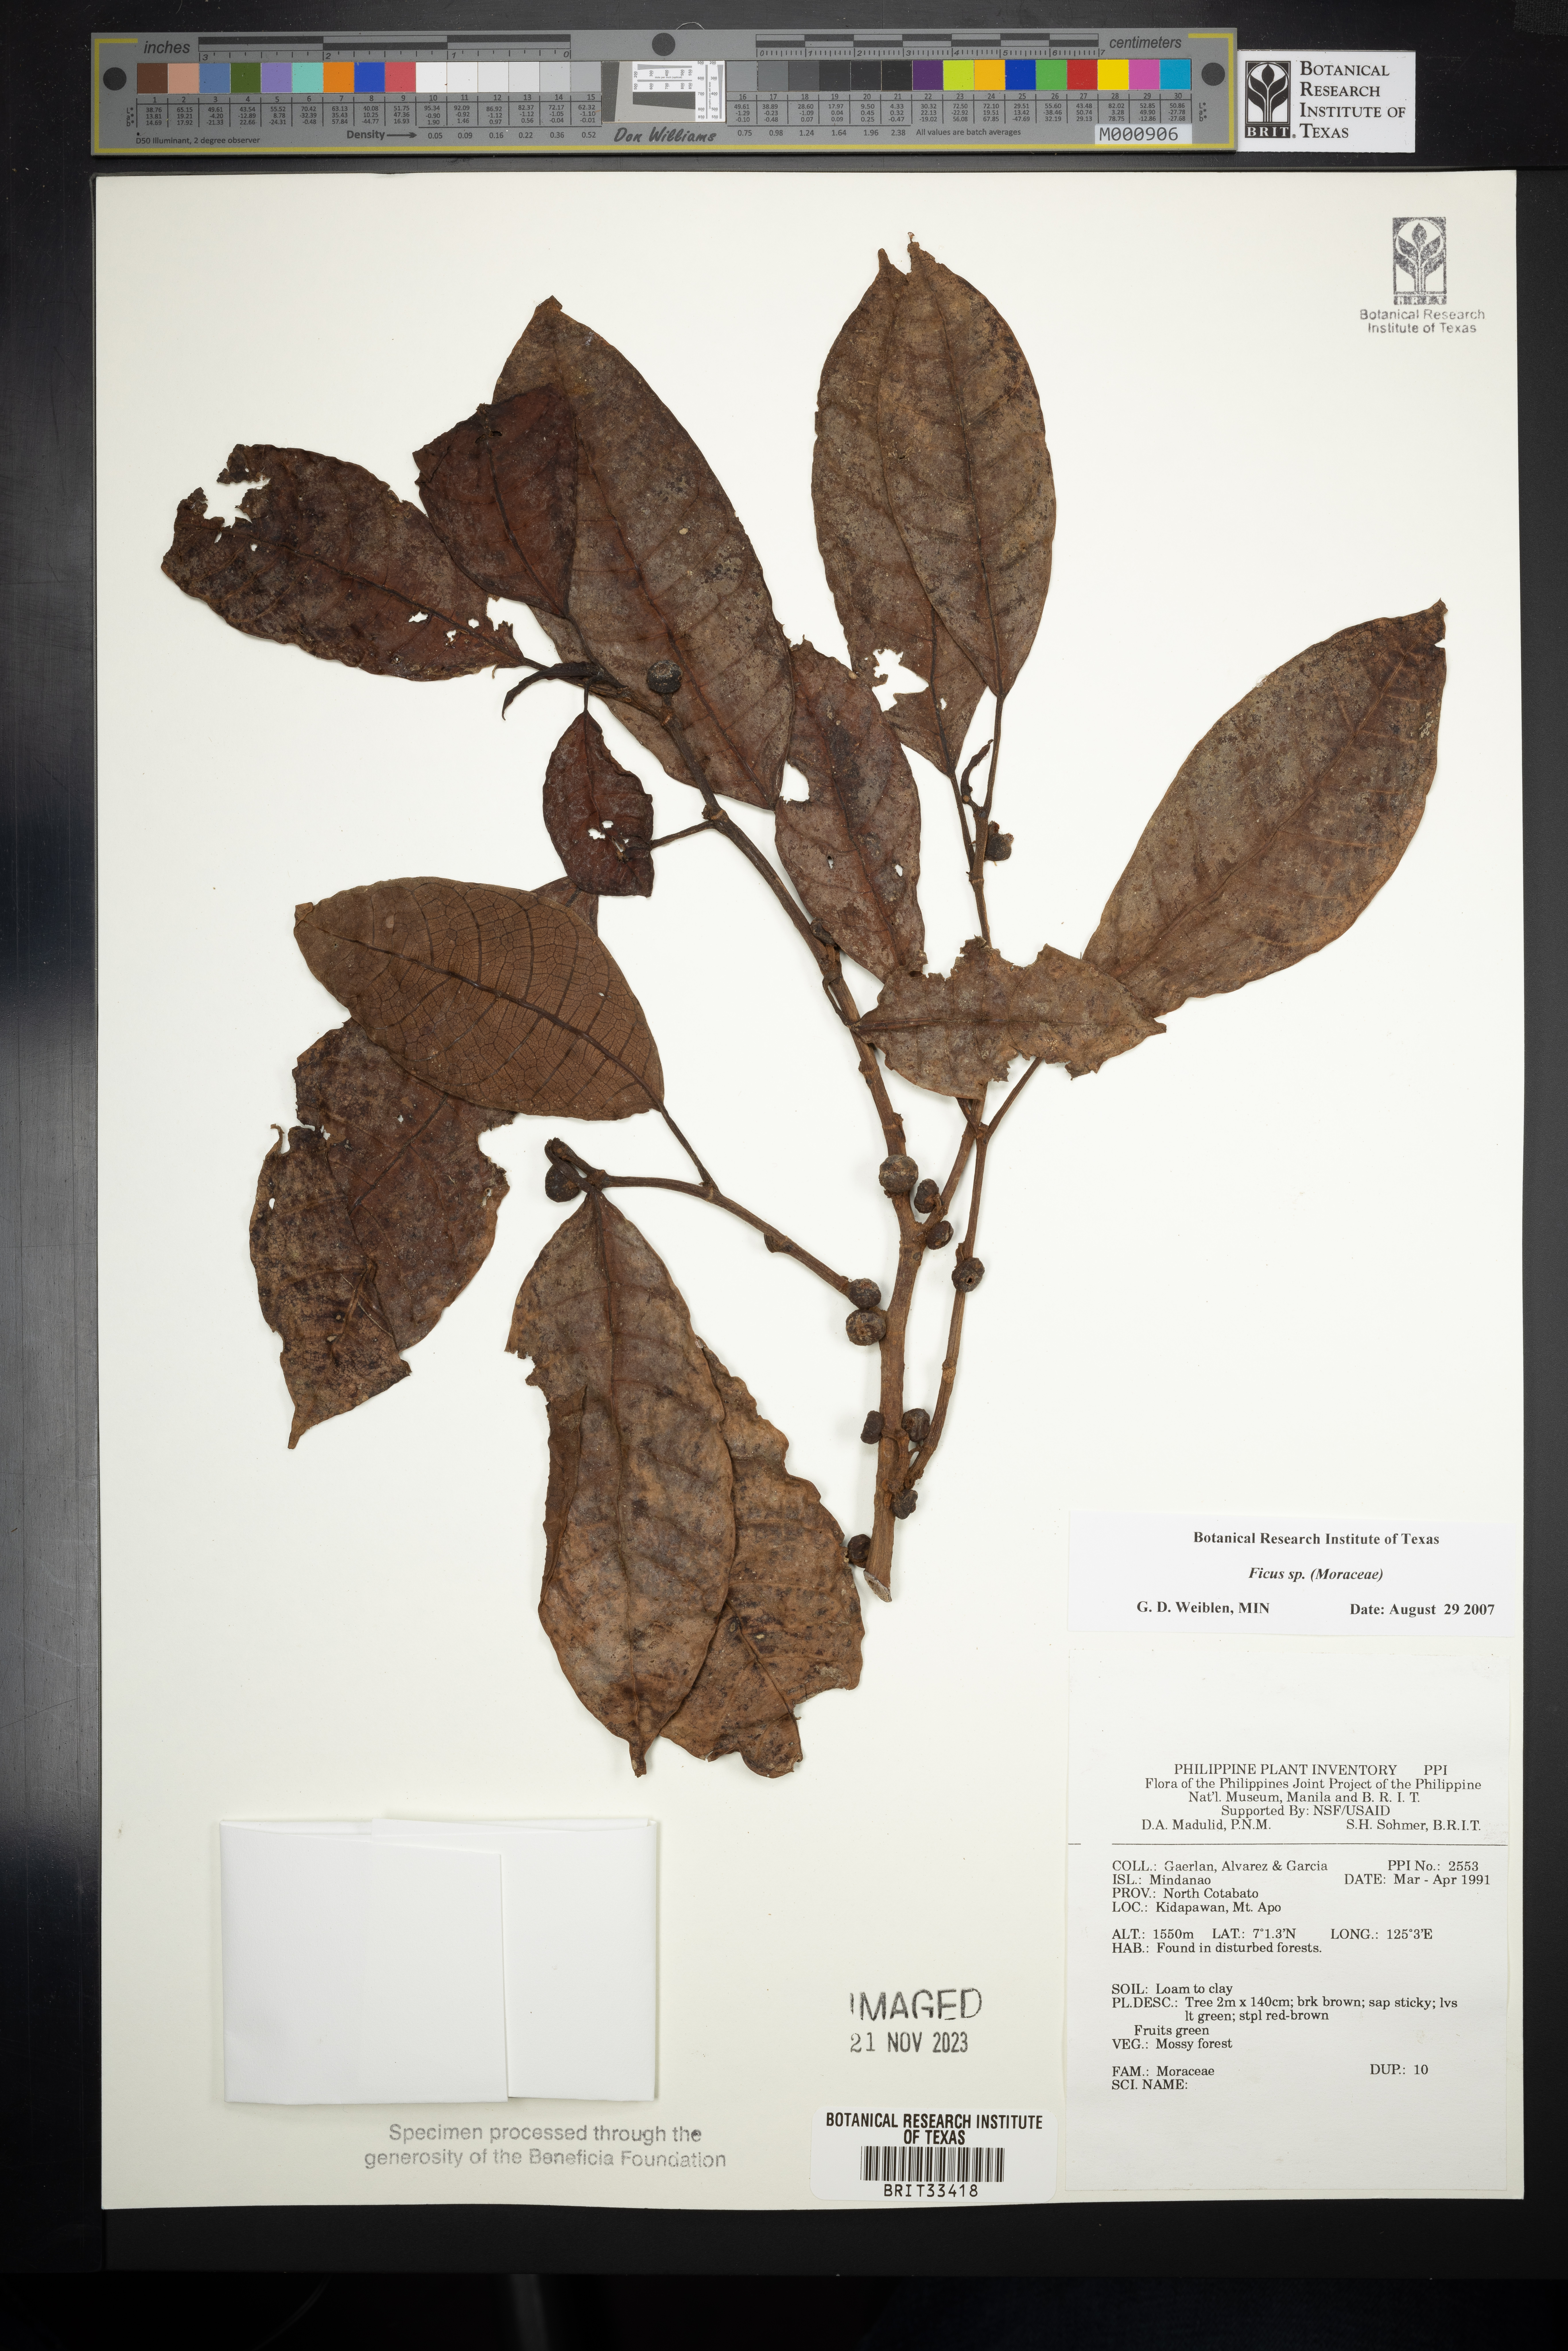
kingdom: Plantae
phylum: Tracheophyta
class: Magnoliopsida
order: Rosales
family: Moraceae
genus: Ficus
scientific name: Ficus
